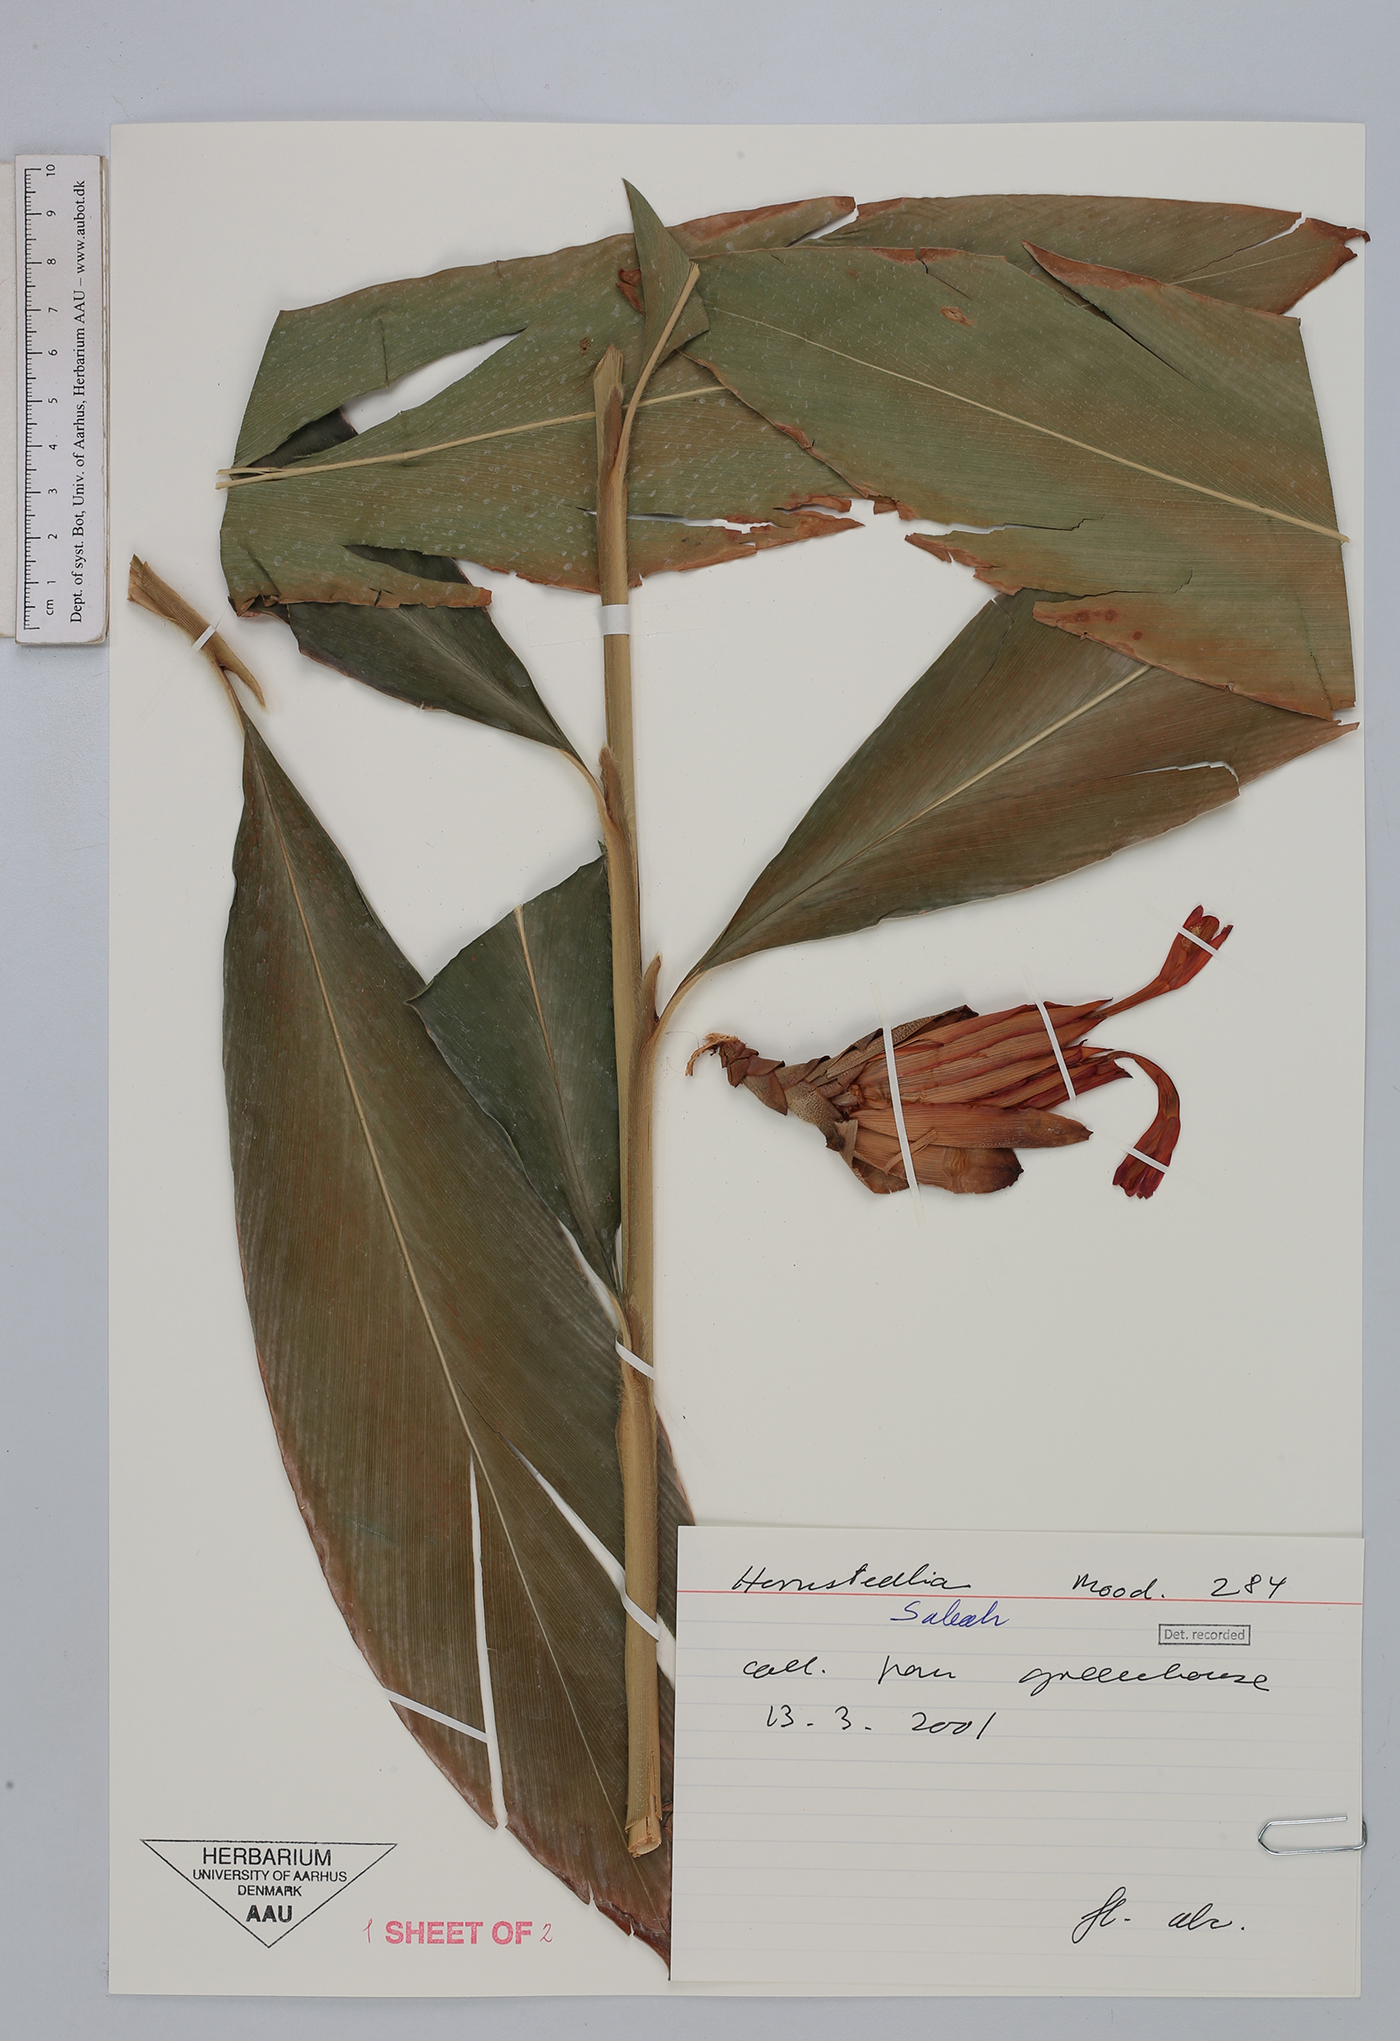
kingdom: Plantae
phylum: Tracheophyta
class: Liliopsida
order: Zingiberales
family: Zingiberaceae
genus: Hornstedtia
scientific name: Hornstedtia
